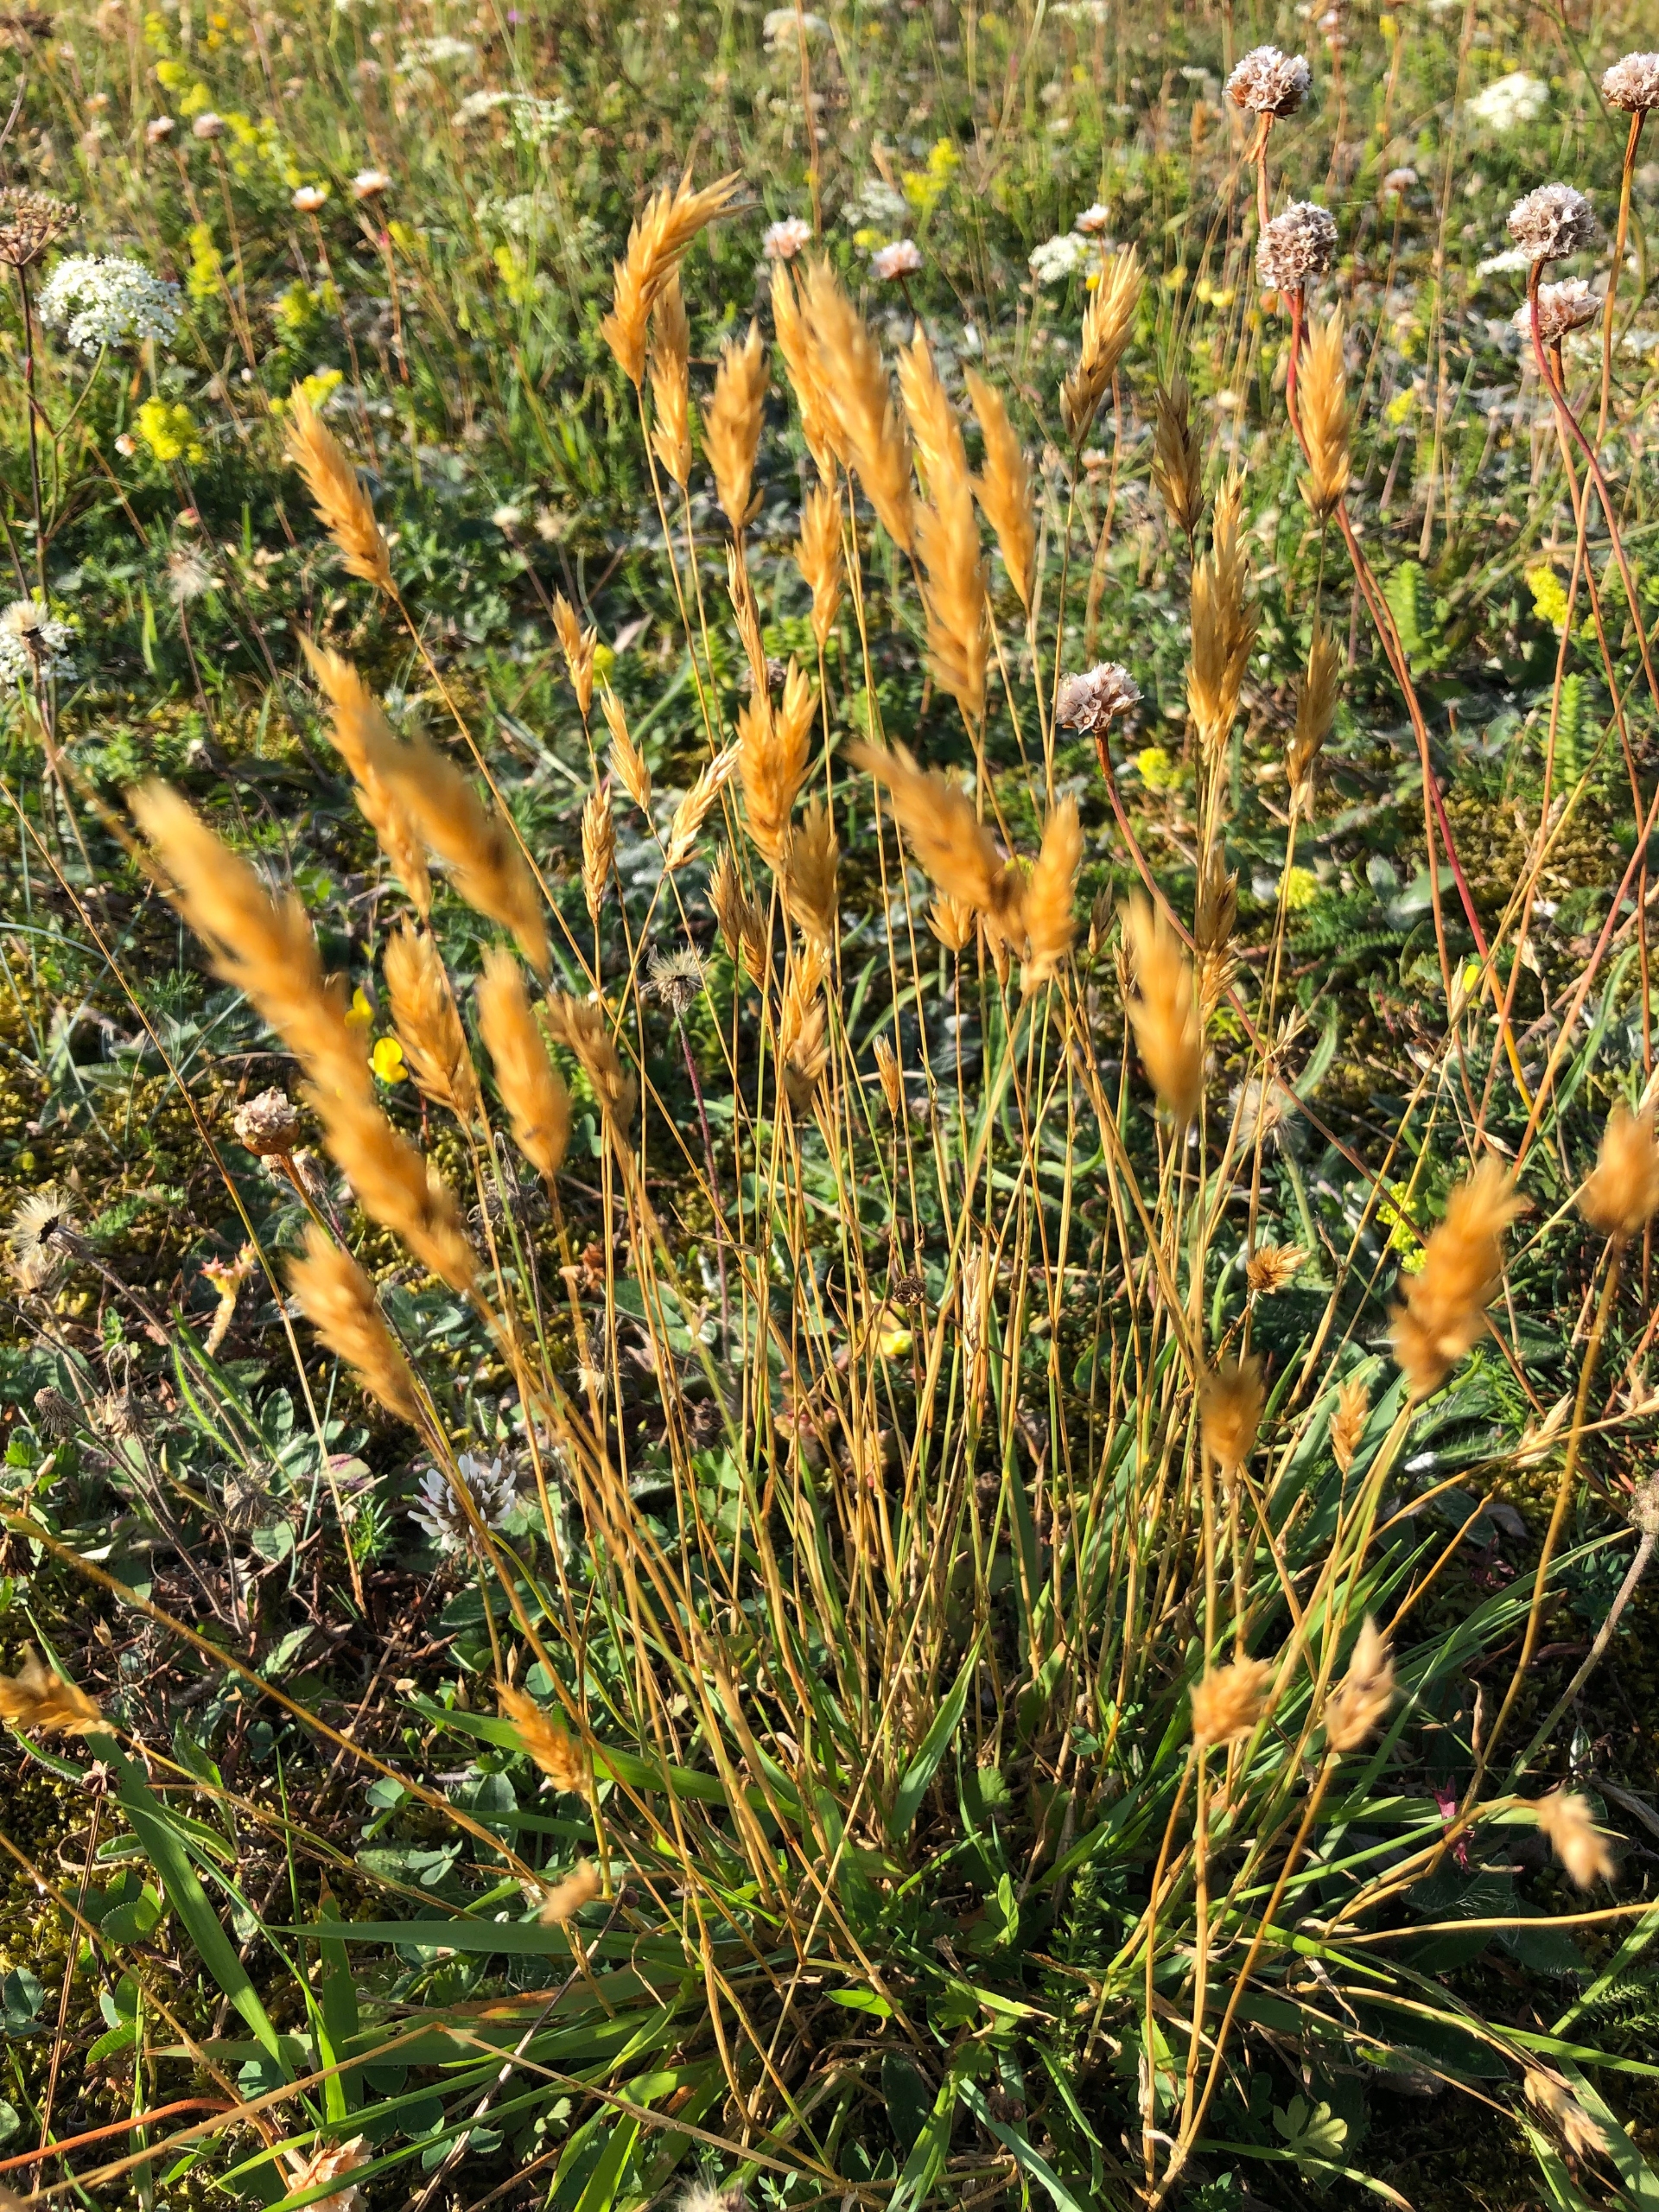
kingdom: Plantae
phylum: Tracheophyta
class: Liliopsida
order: Poales
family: Poaceae
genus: Anthoxanthum
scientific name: Anthoxanthum odoratum
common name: Vellugtende gulaks
